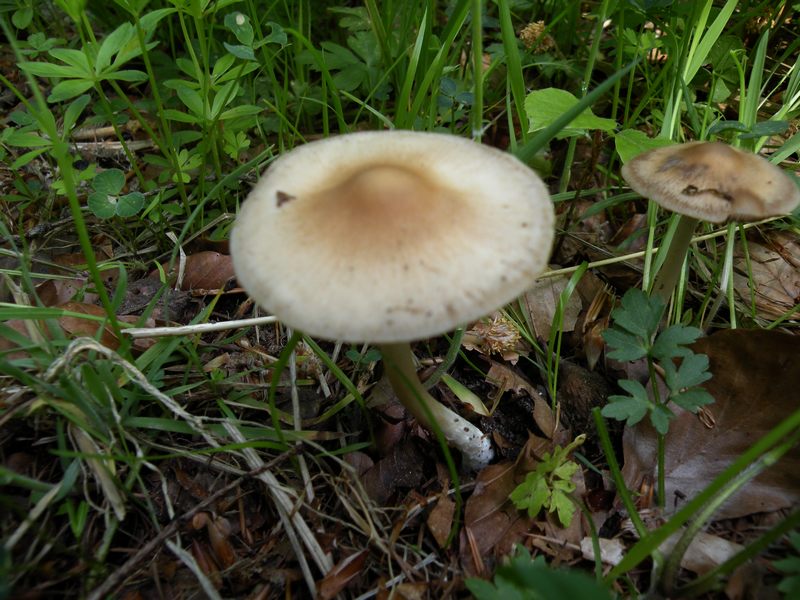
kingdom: Fungi
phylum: Basidiomycota
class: Agaricomycetes
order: Agaricales
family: Psathyrellaceae
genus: Psathyrella
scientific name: Psathyrella spadiceogrisea
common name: gråbrun mørkhat
